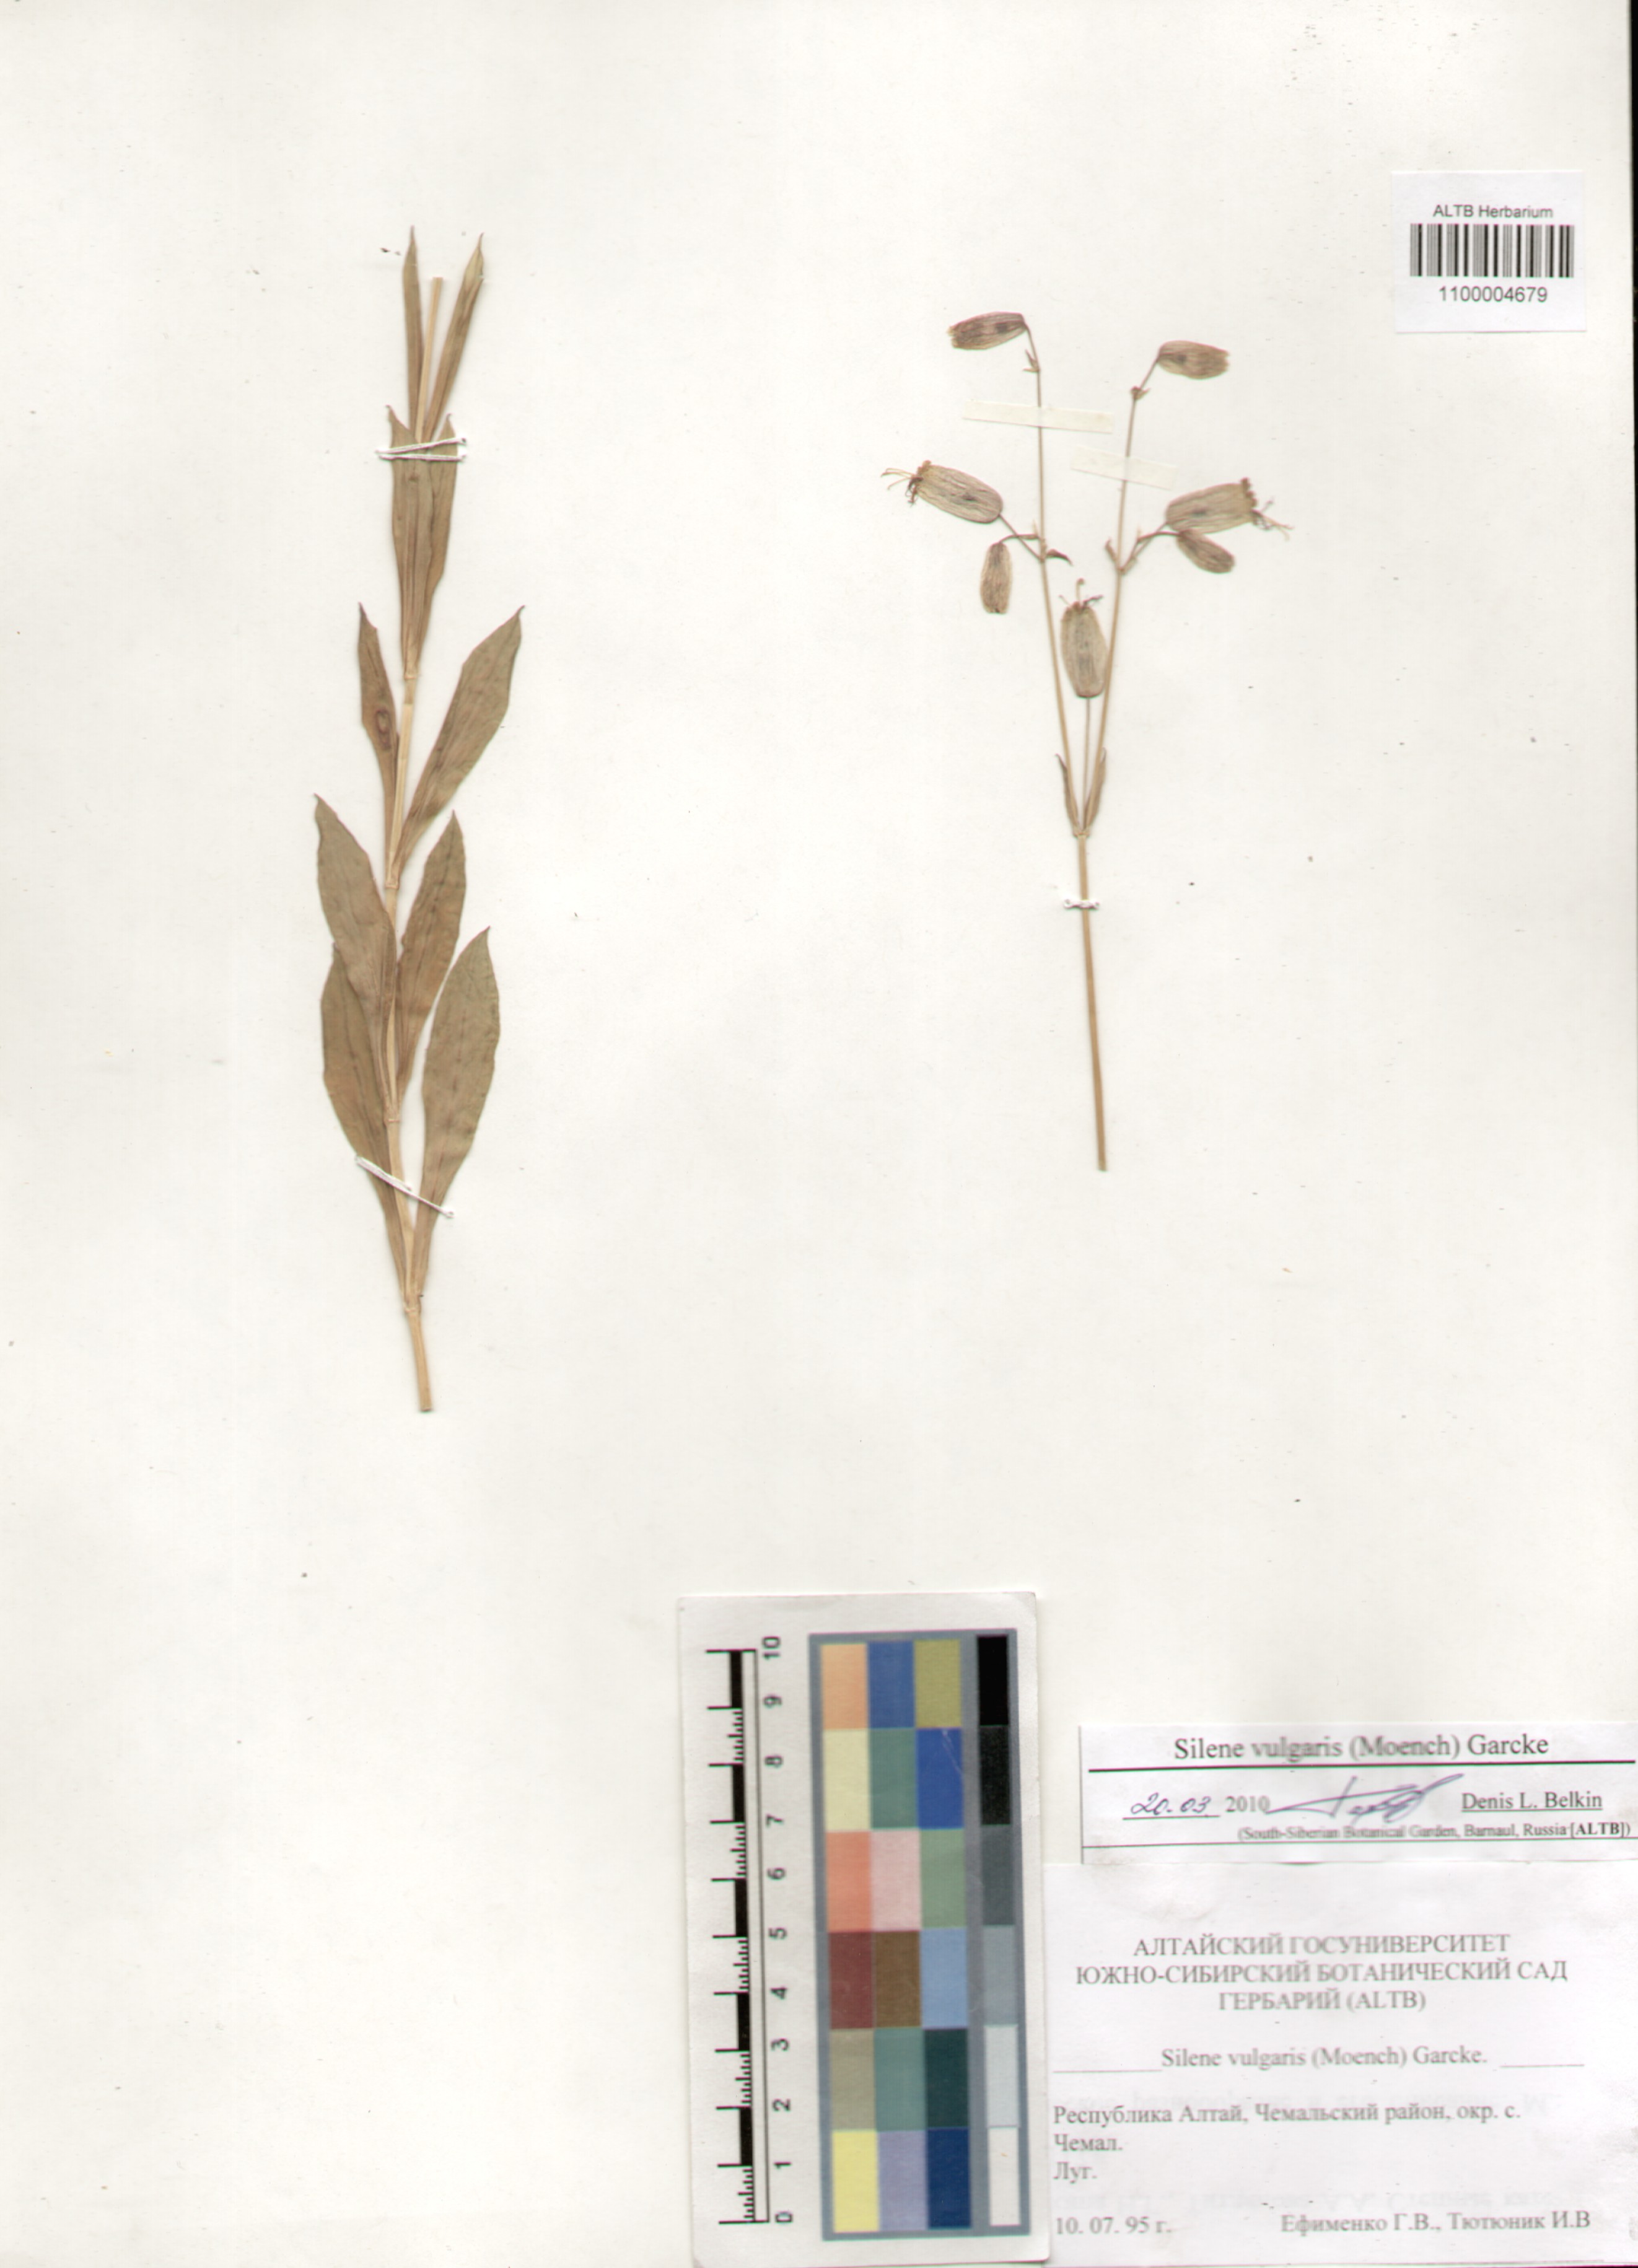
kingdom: Plantae
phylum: Tracheophyta
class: Magnoliopsida
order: Caryophyllales
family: Caryophyllaceae
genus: Silene
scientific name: Silene vulgaris
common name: Bladder campion
